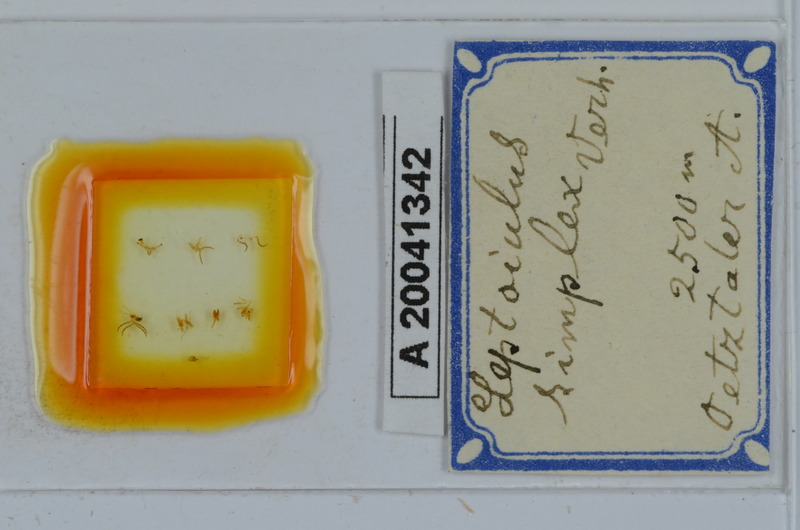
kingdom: Animalia
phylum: Arthropoda
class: Diplopoda
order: Julida
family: Julidae
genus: Leptoiulus
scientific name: Leptoiulus simplex
